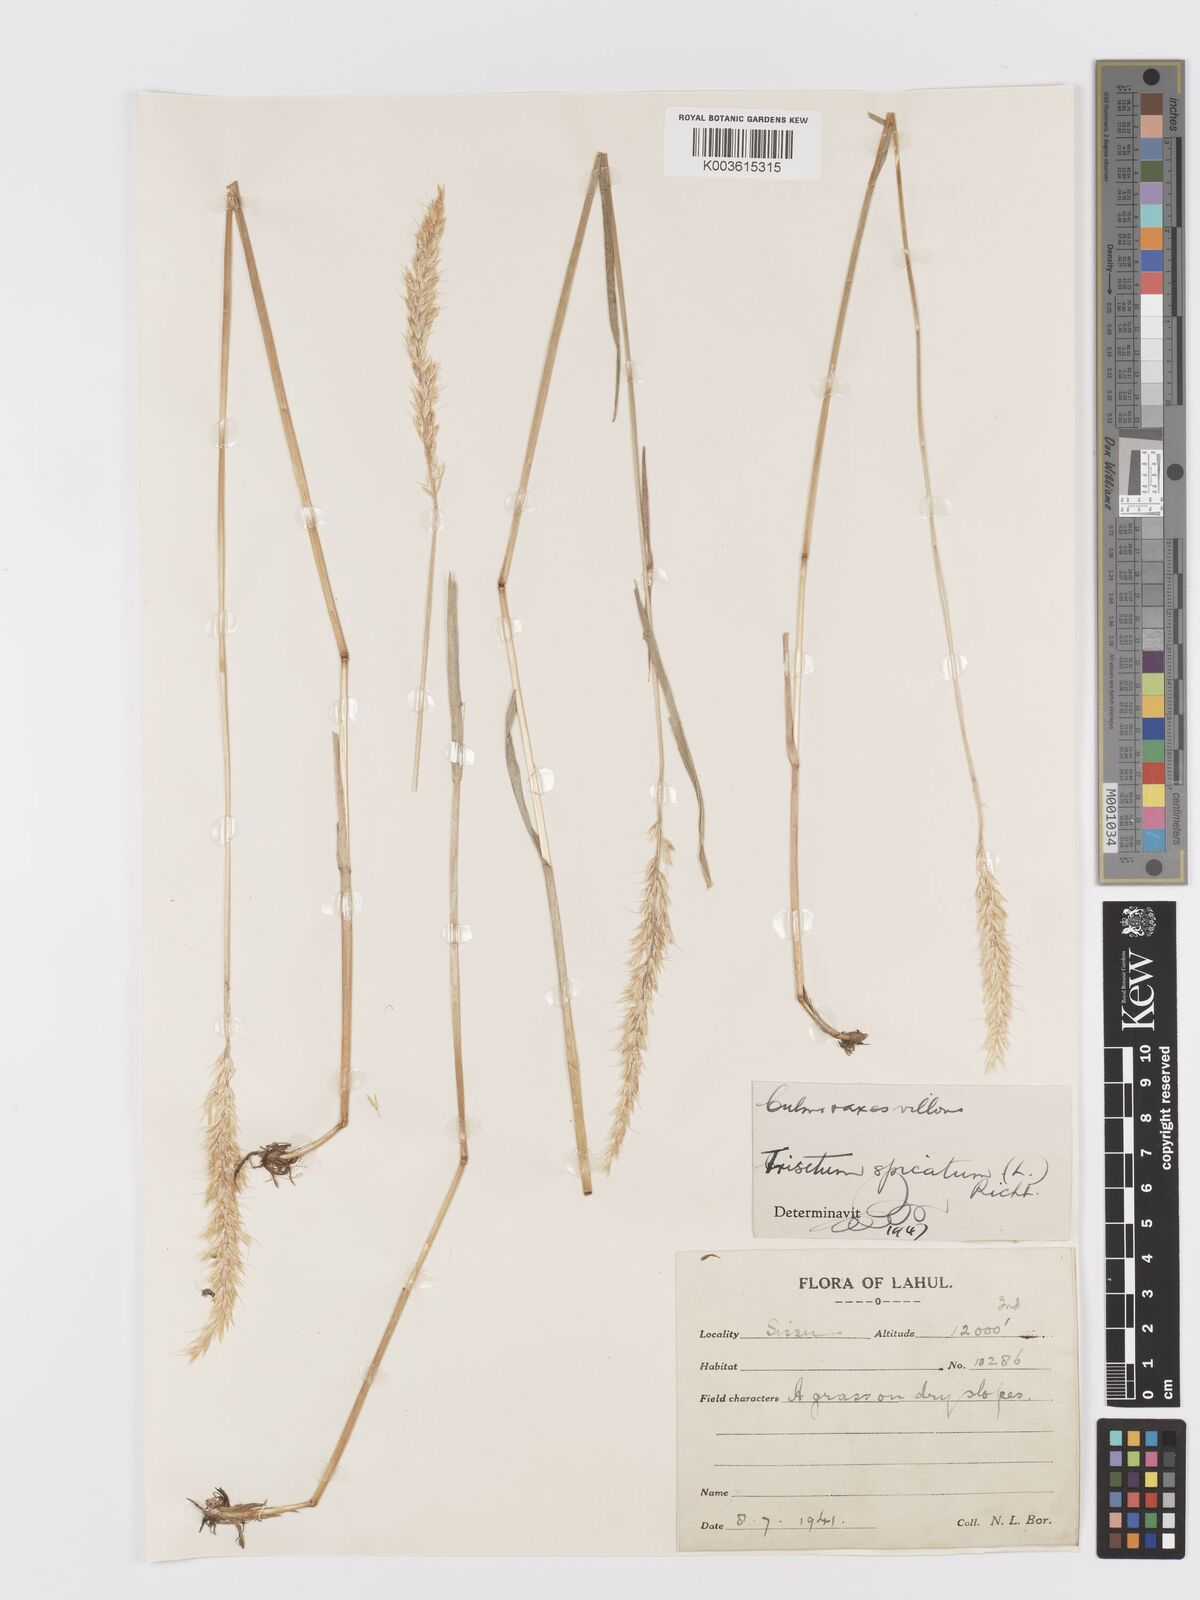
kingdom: Plantae
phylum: Tracheophyta
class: Liliopsida
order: Poales
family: Poaceae
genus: Koeleria
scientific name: Koeleria spicata
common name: Mountain trisetum
